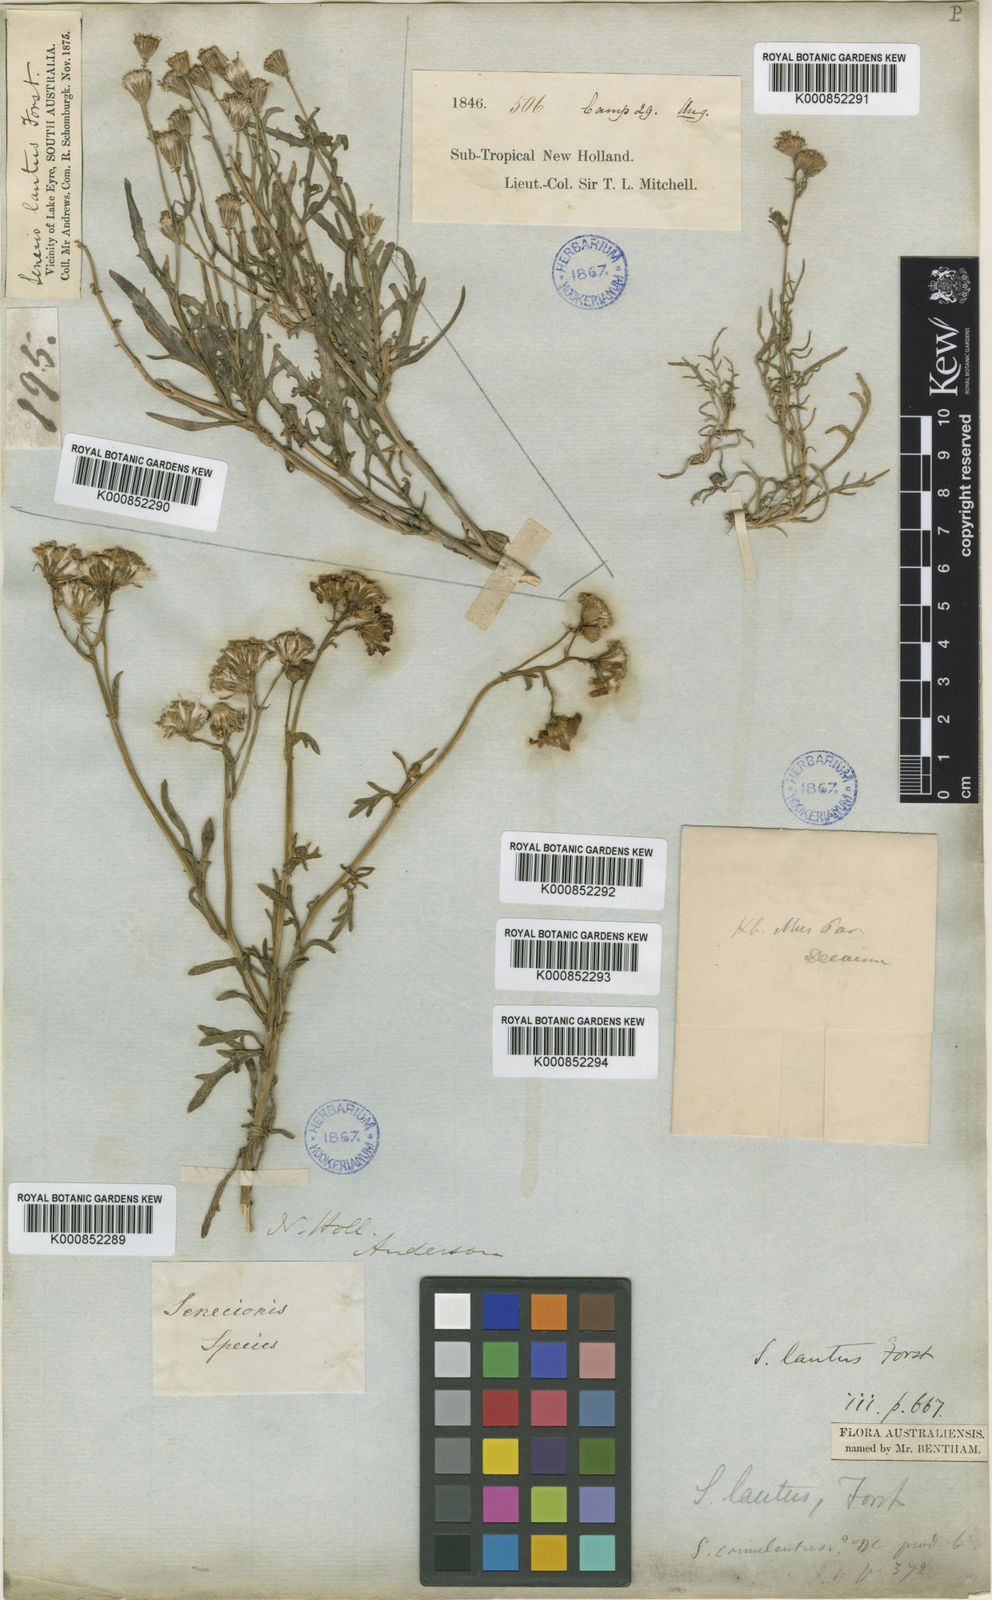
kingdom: Plantae
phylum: Tracheophyta
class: Magnoliopsida
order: Asterales
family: Asteraceae
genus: Senecio
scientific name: Senecio
